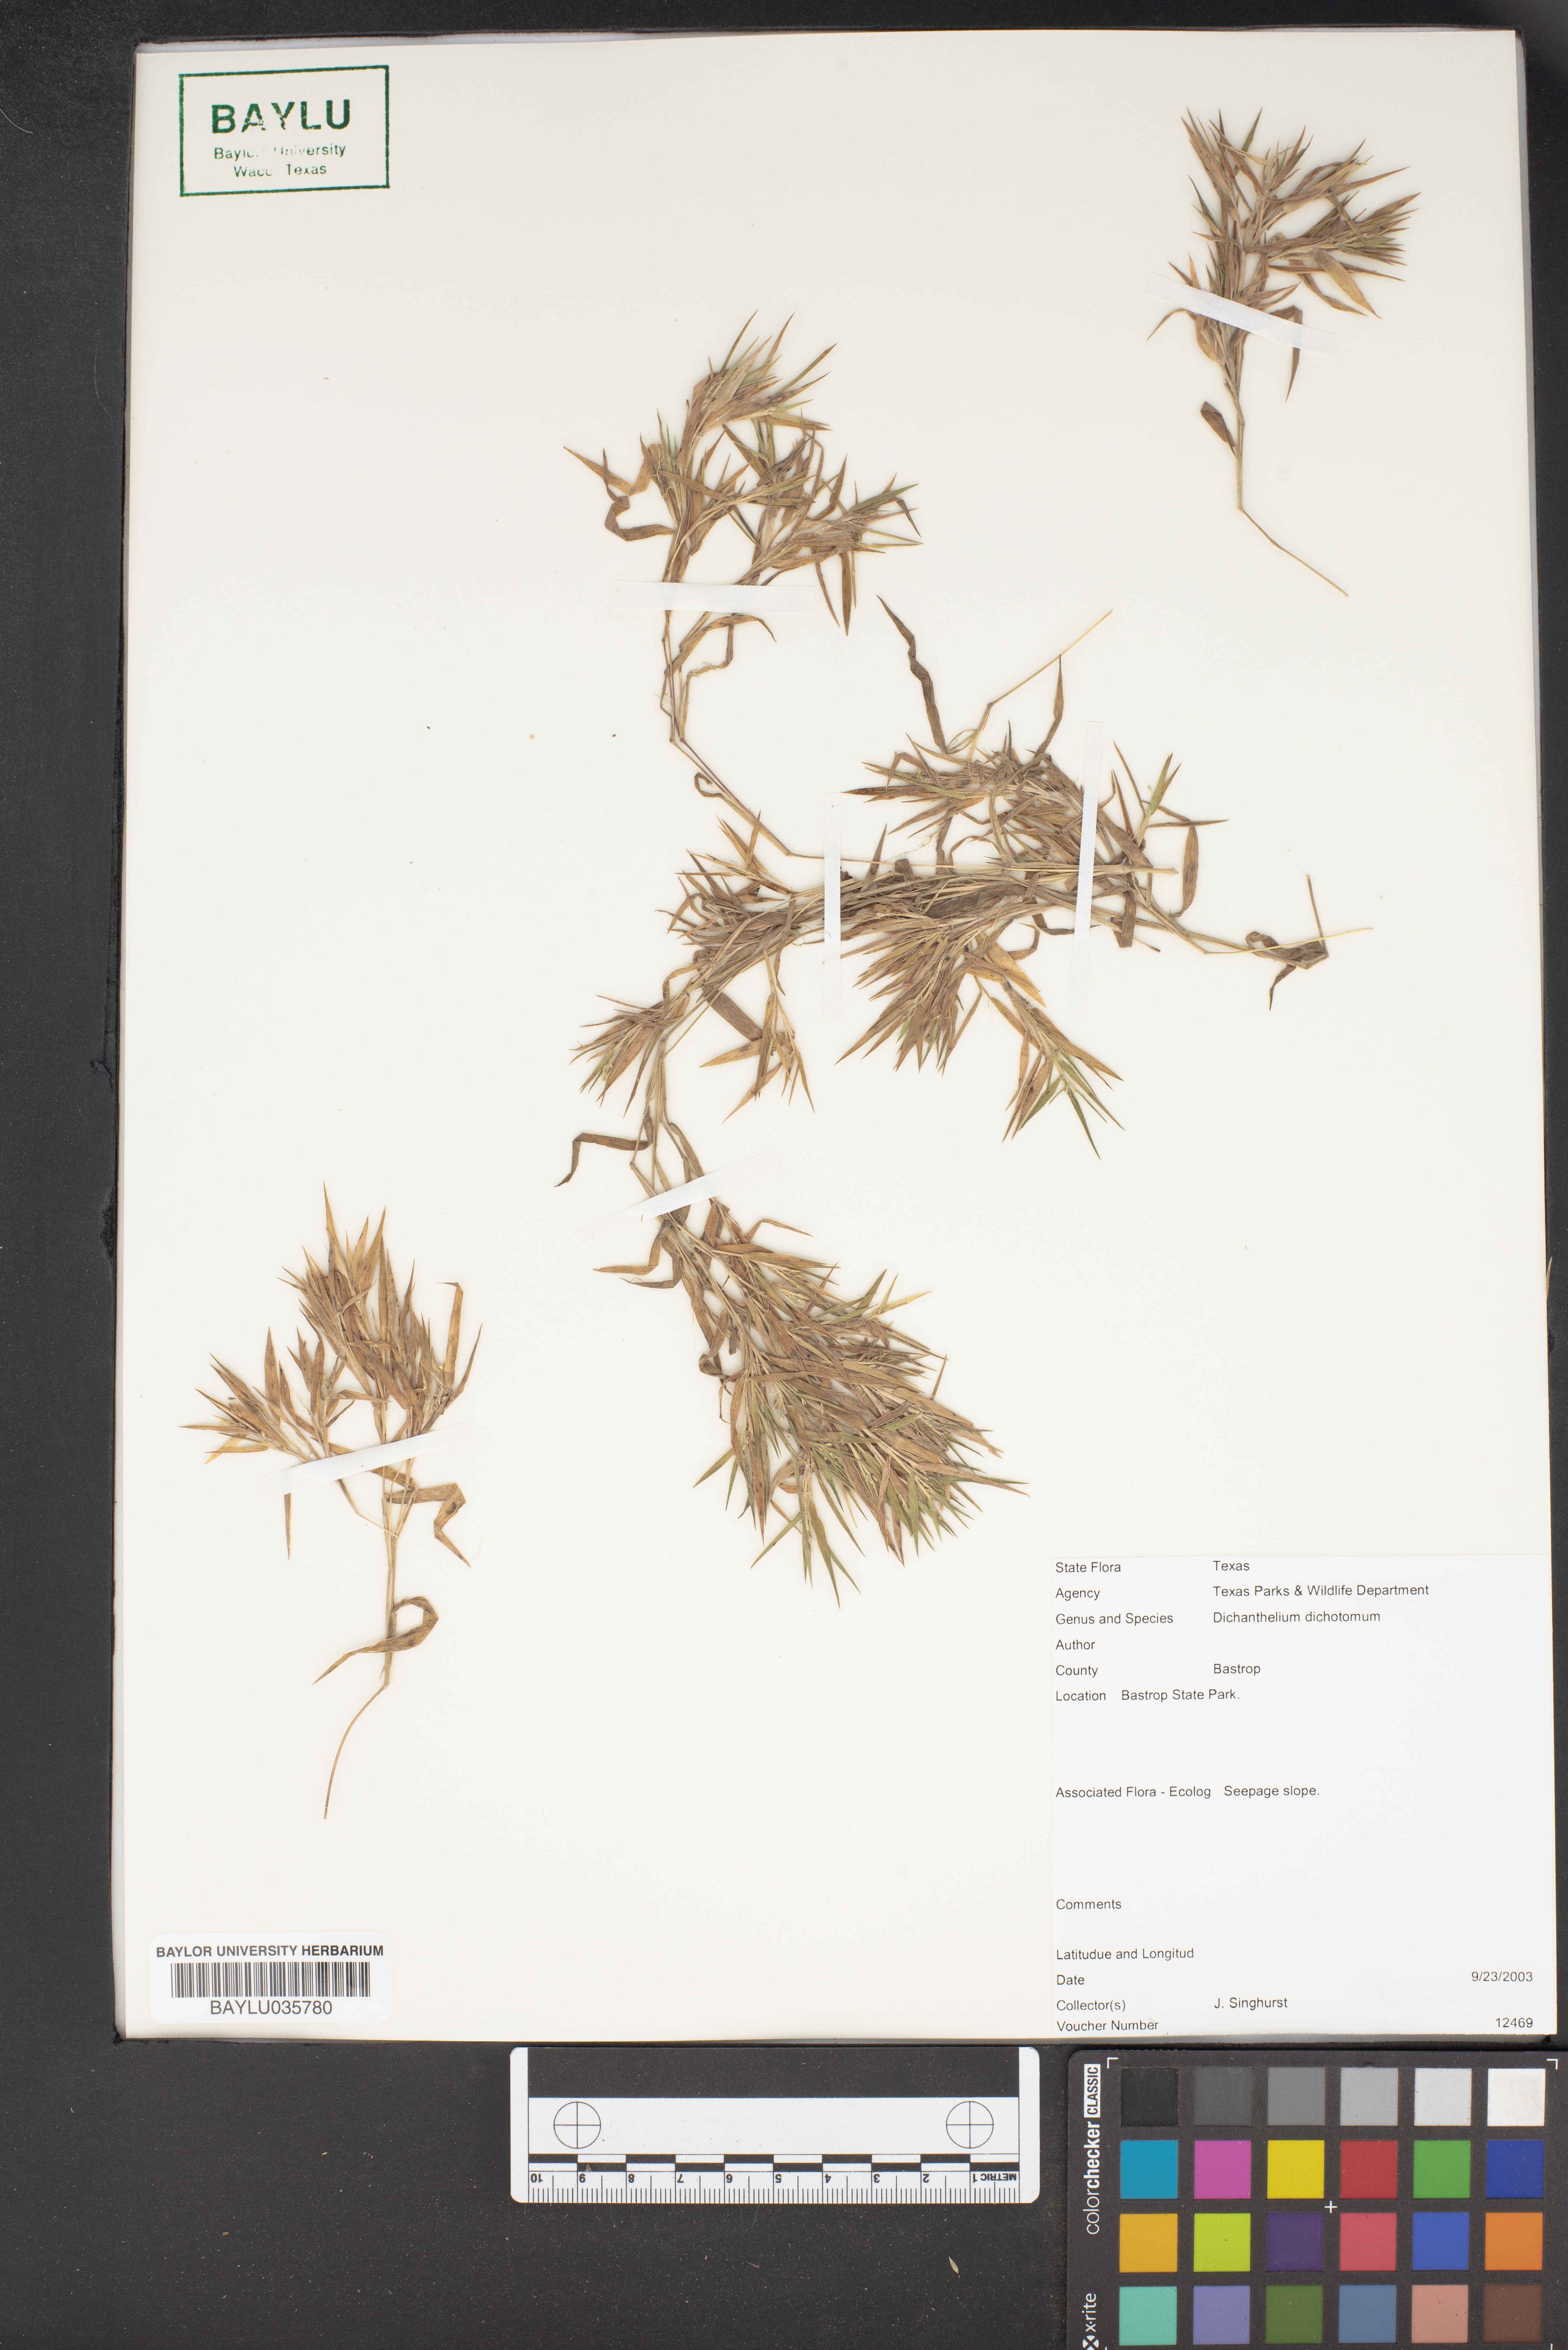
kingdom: Plantae
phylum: Tracheophyta
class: Liliopsida
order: Poales
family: Poaceae
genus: Dichanthelium
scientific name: Dichanthelium dichotomum
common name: Cypress panicgrass
